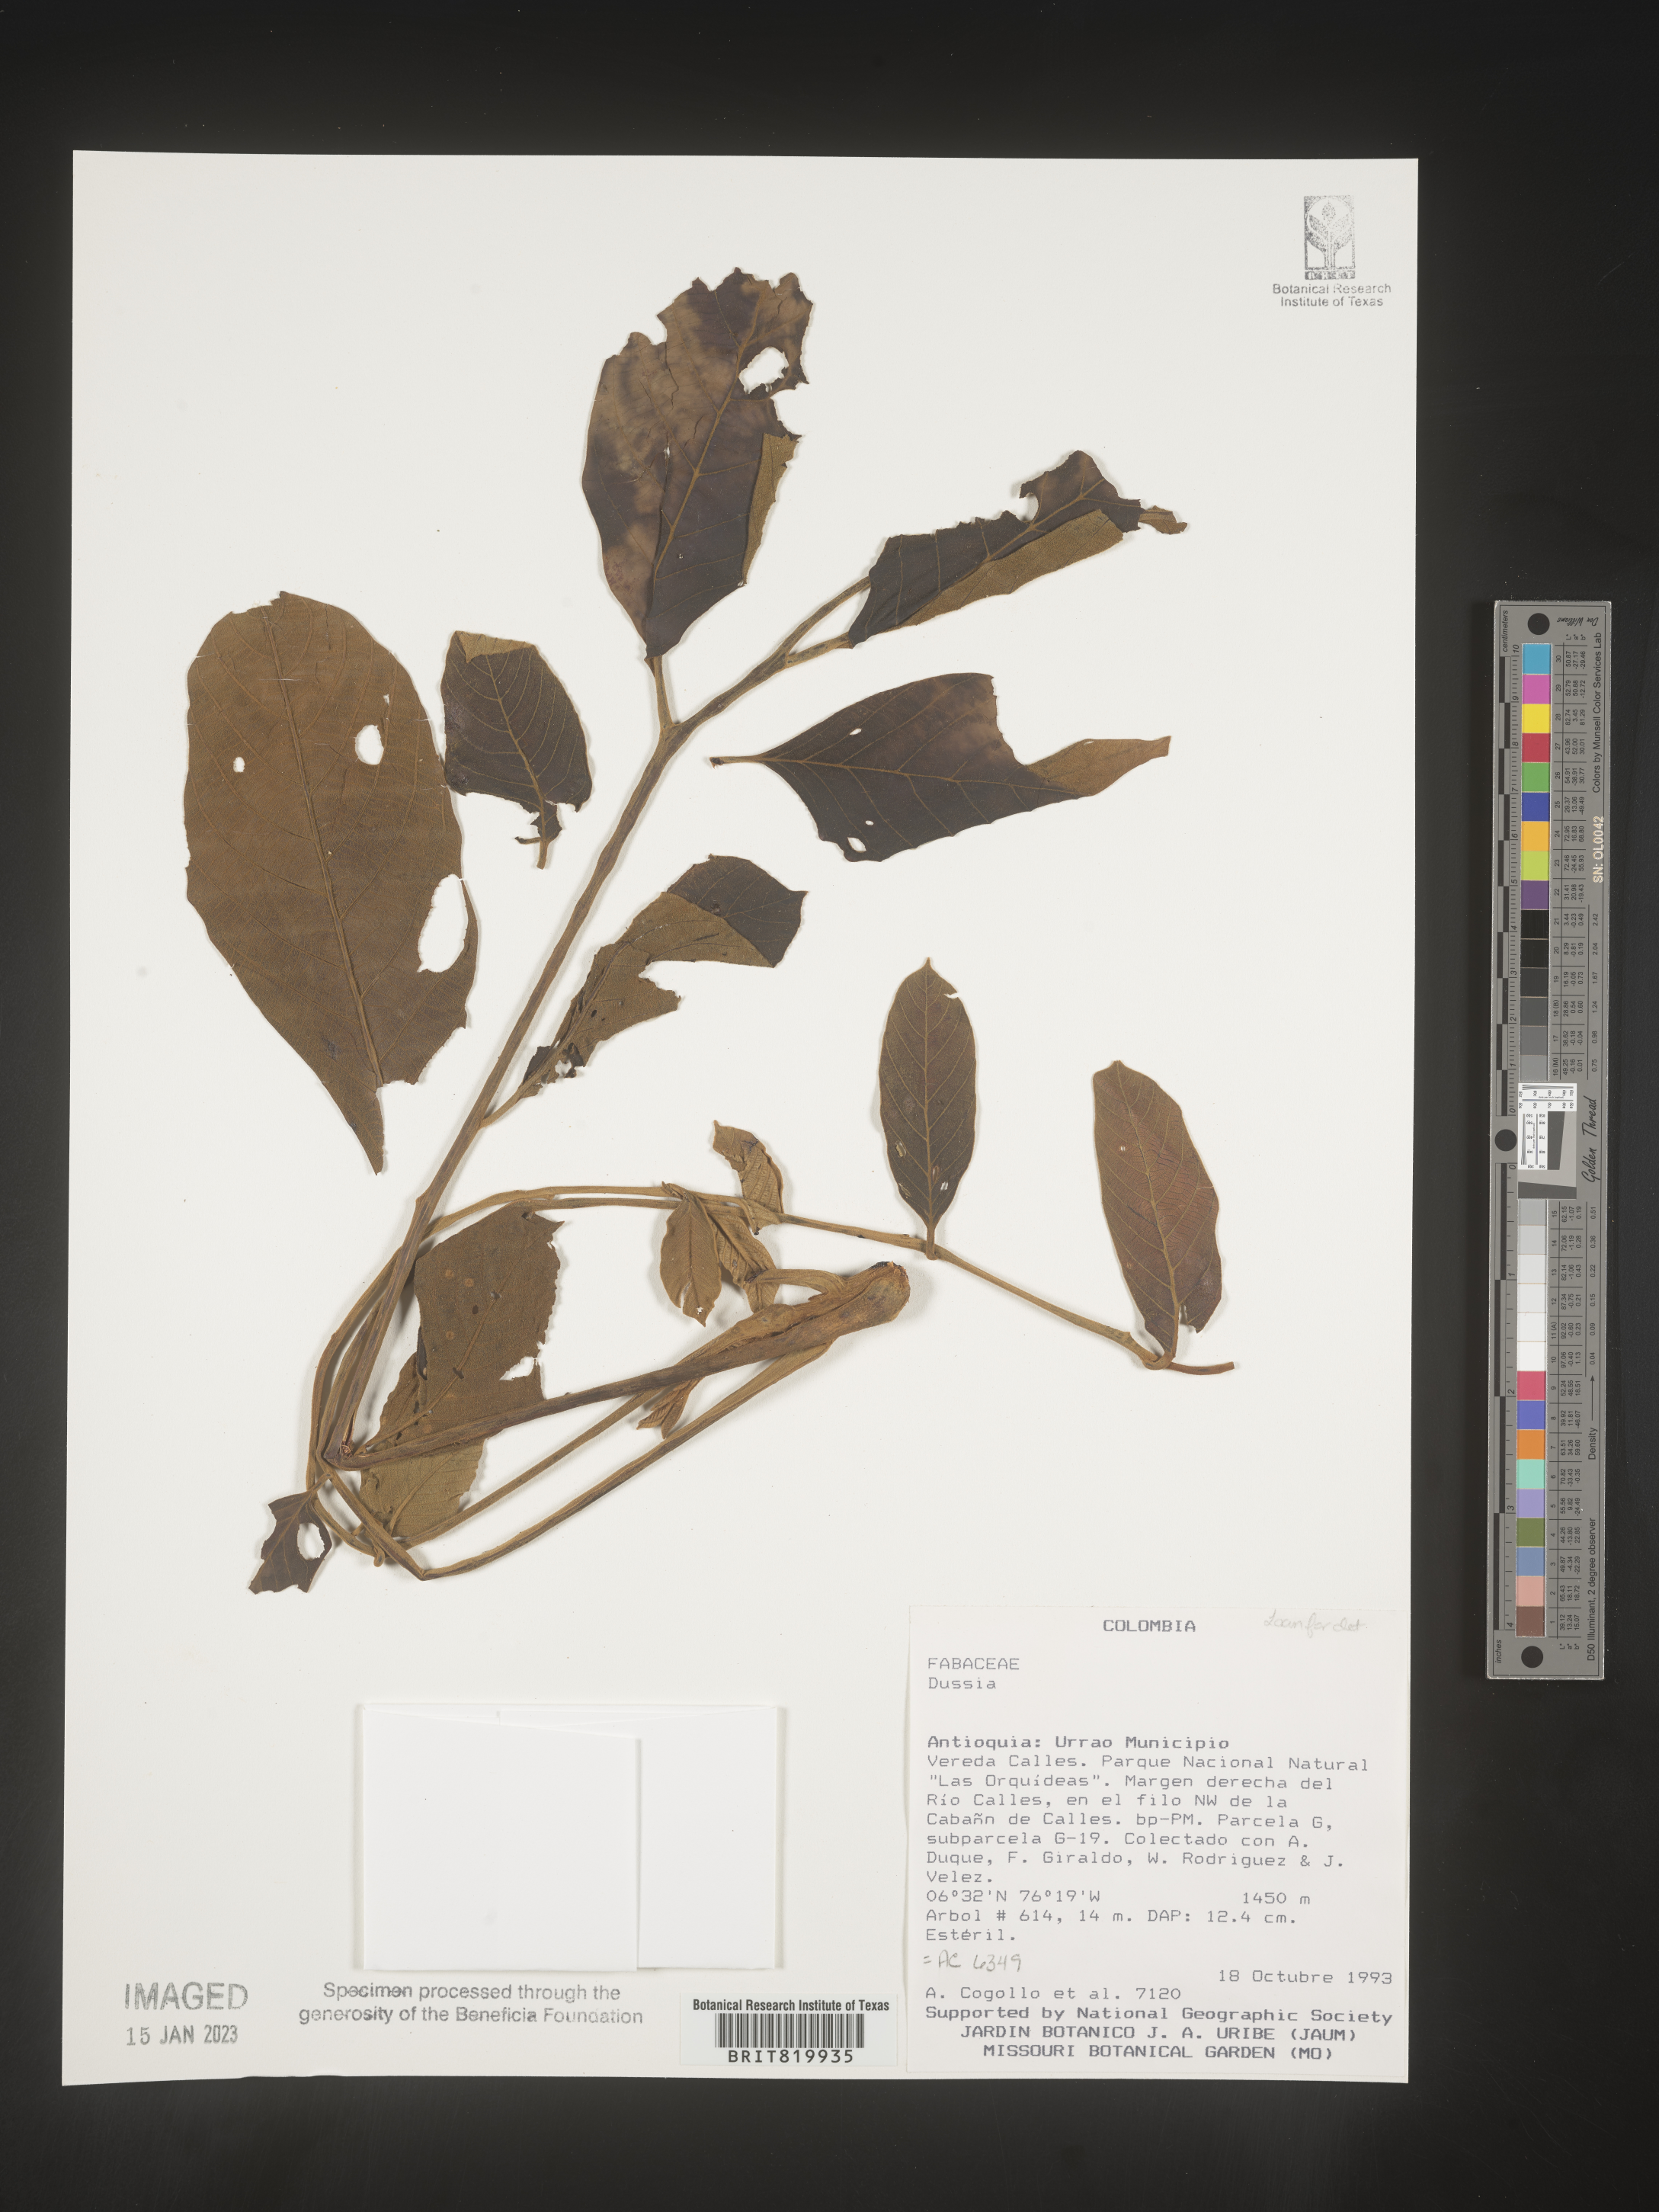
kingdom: Plantae
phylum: Tracheophyta
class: Magnoliopsida
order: Fabales
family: Fabaceae
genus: Dussia
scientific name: Dussia
